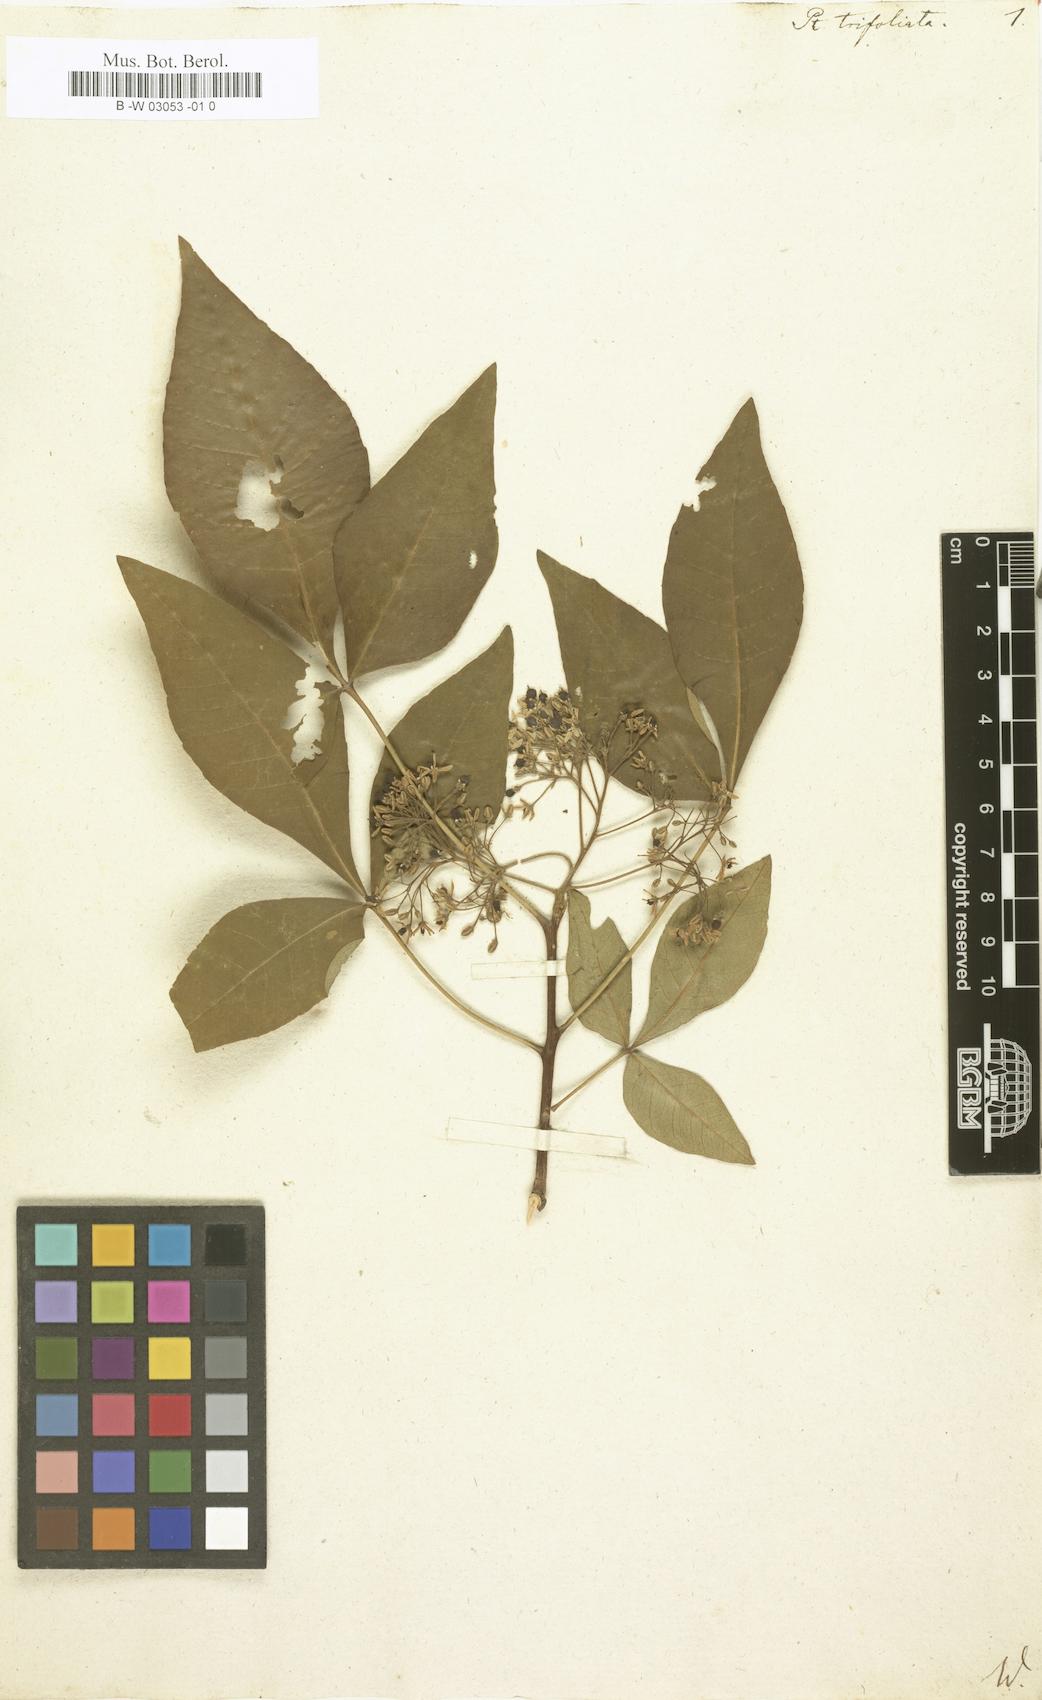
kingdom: Plantae
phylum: Tracheophyta
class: Magnoliopsida
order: Sapindales
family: Rutaceae
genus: Ptelea
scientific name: Ptelea trifoliata
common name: Common hop-tree
